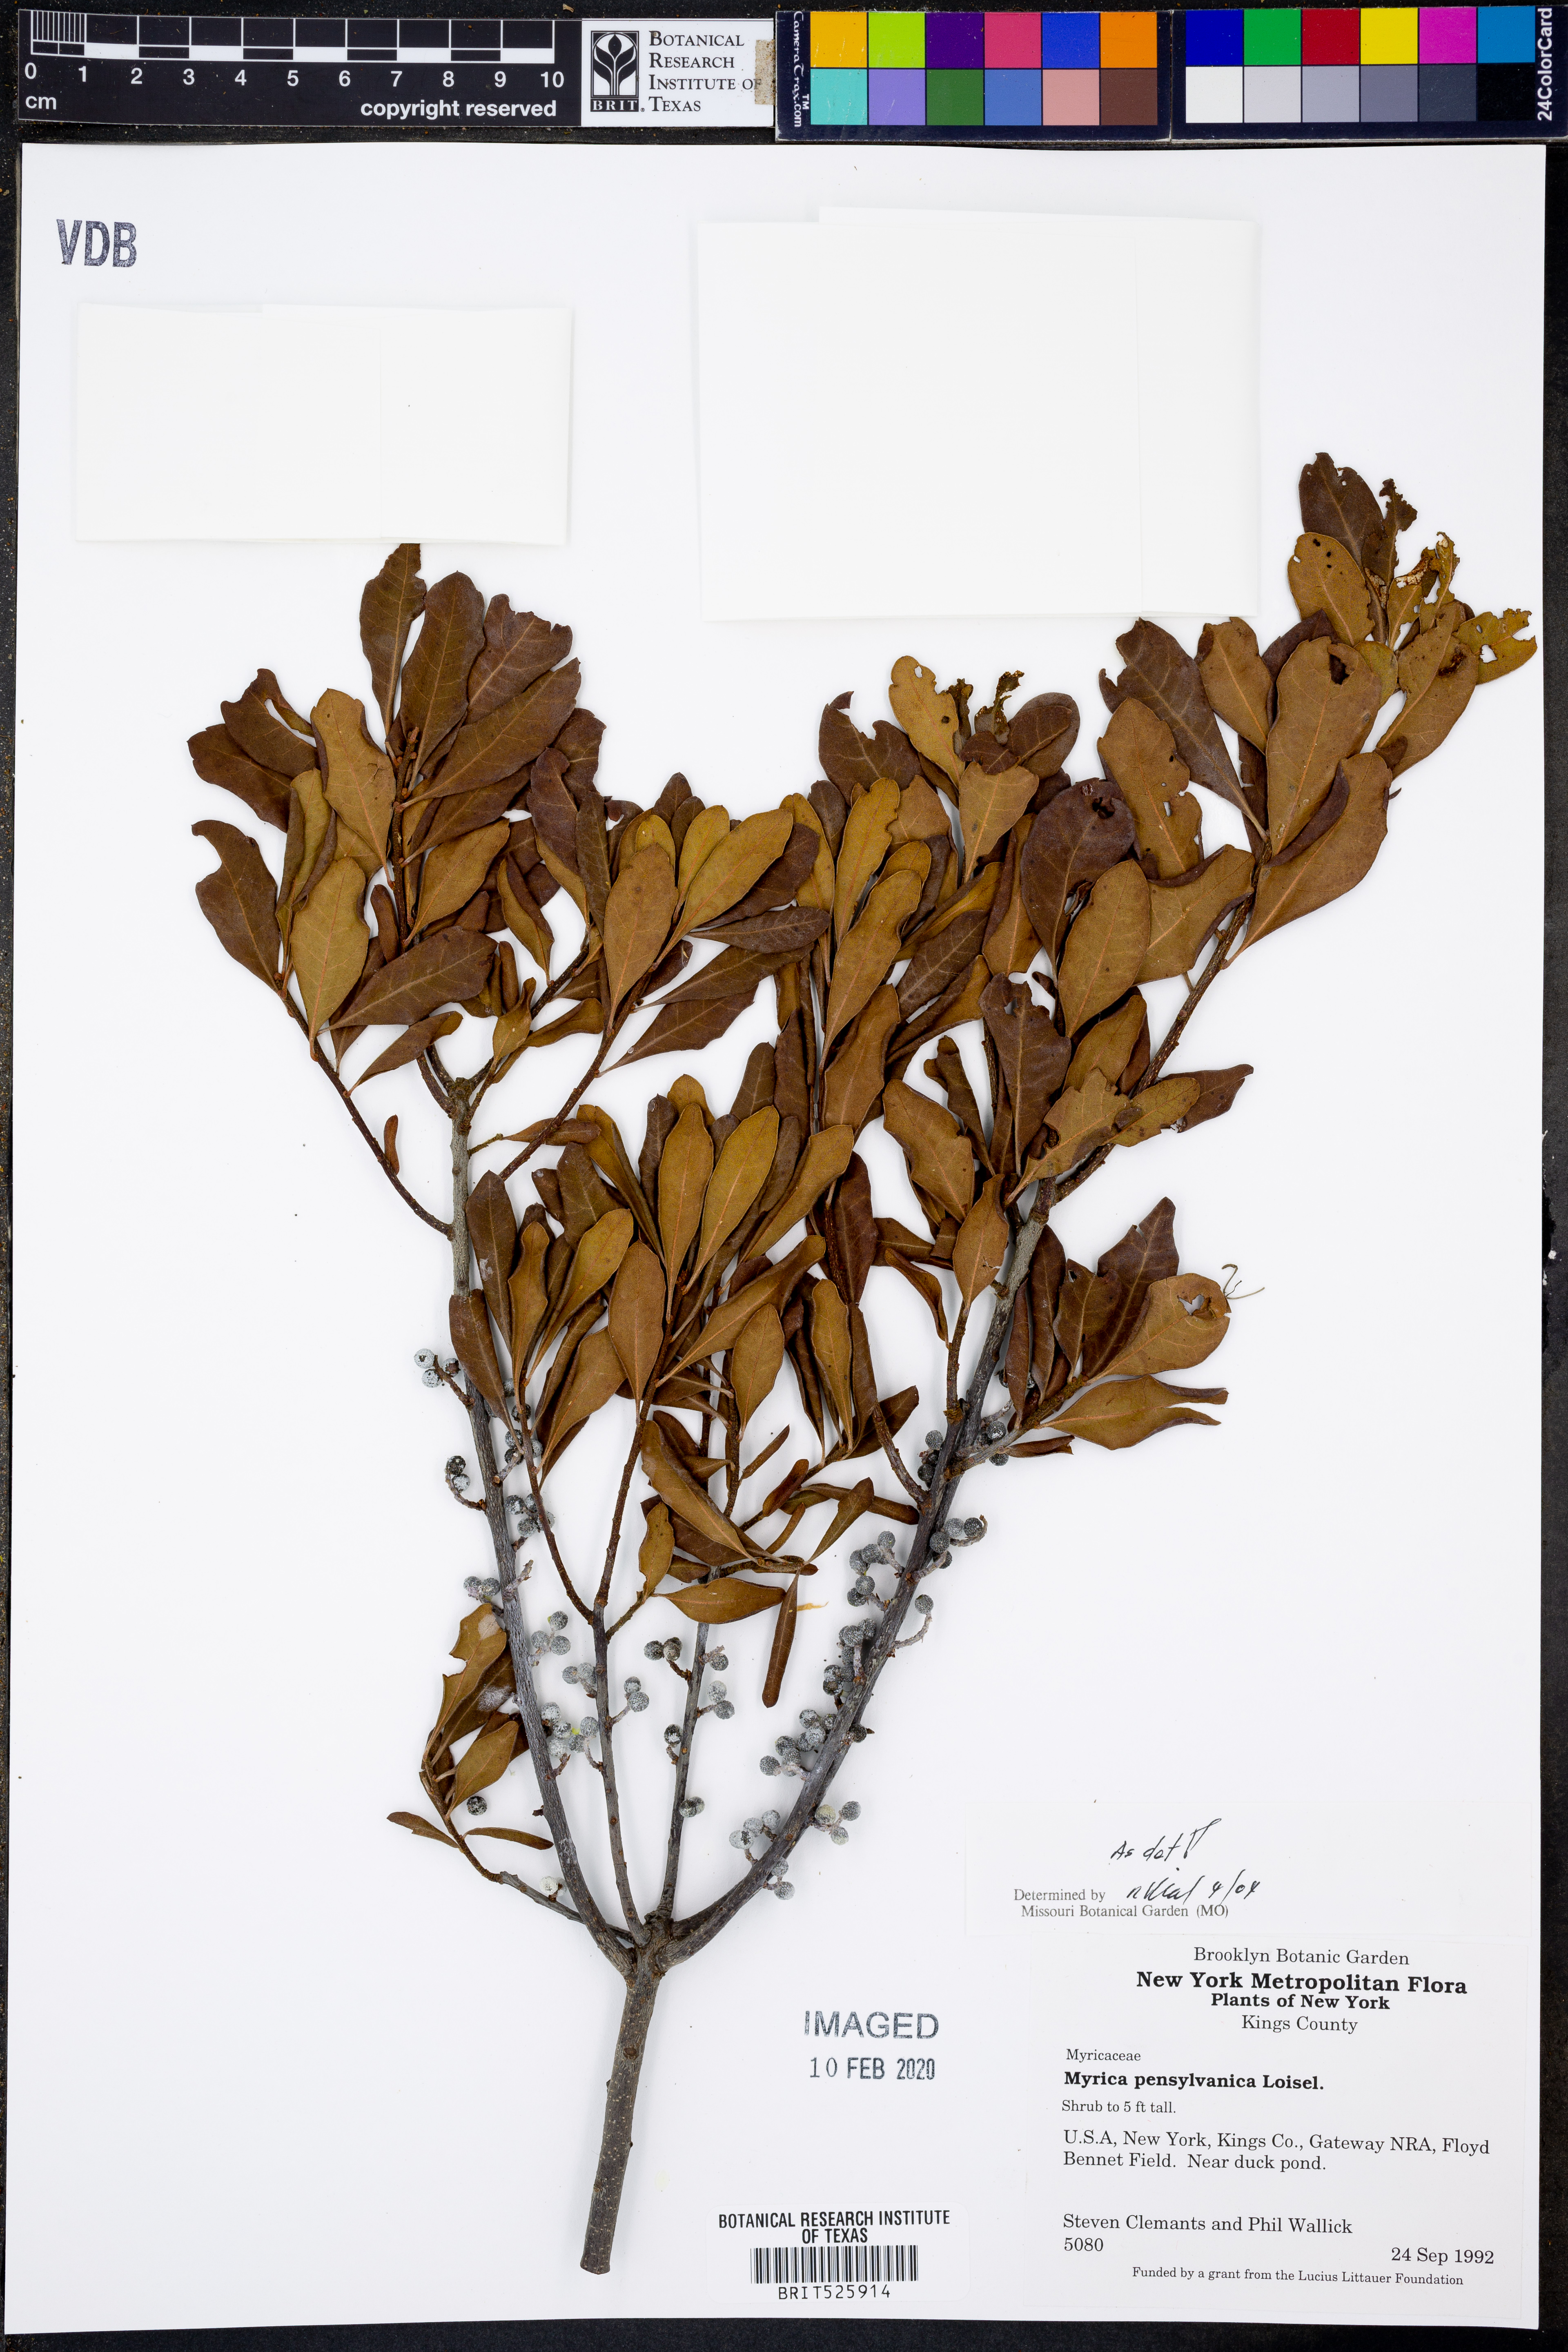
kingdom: Plantae
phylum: Tracheophyta
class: Magnoliopsida
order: Fagales
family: Myricaceae
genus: Morella
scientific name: Morella pensylvanica
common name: Northern bayberry
